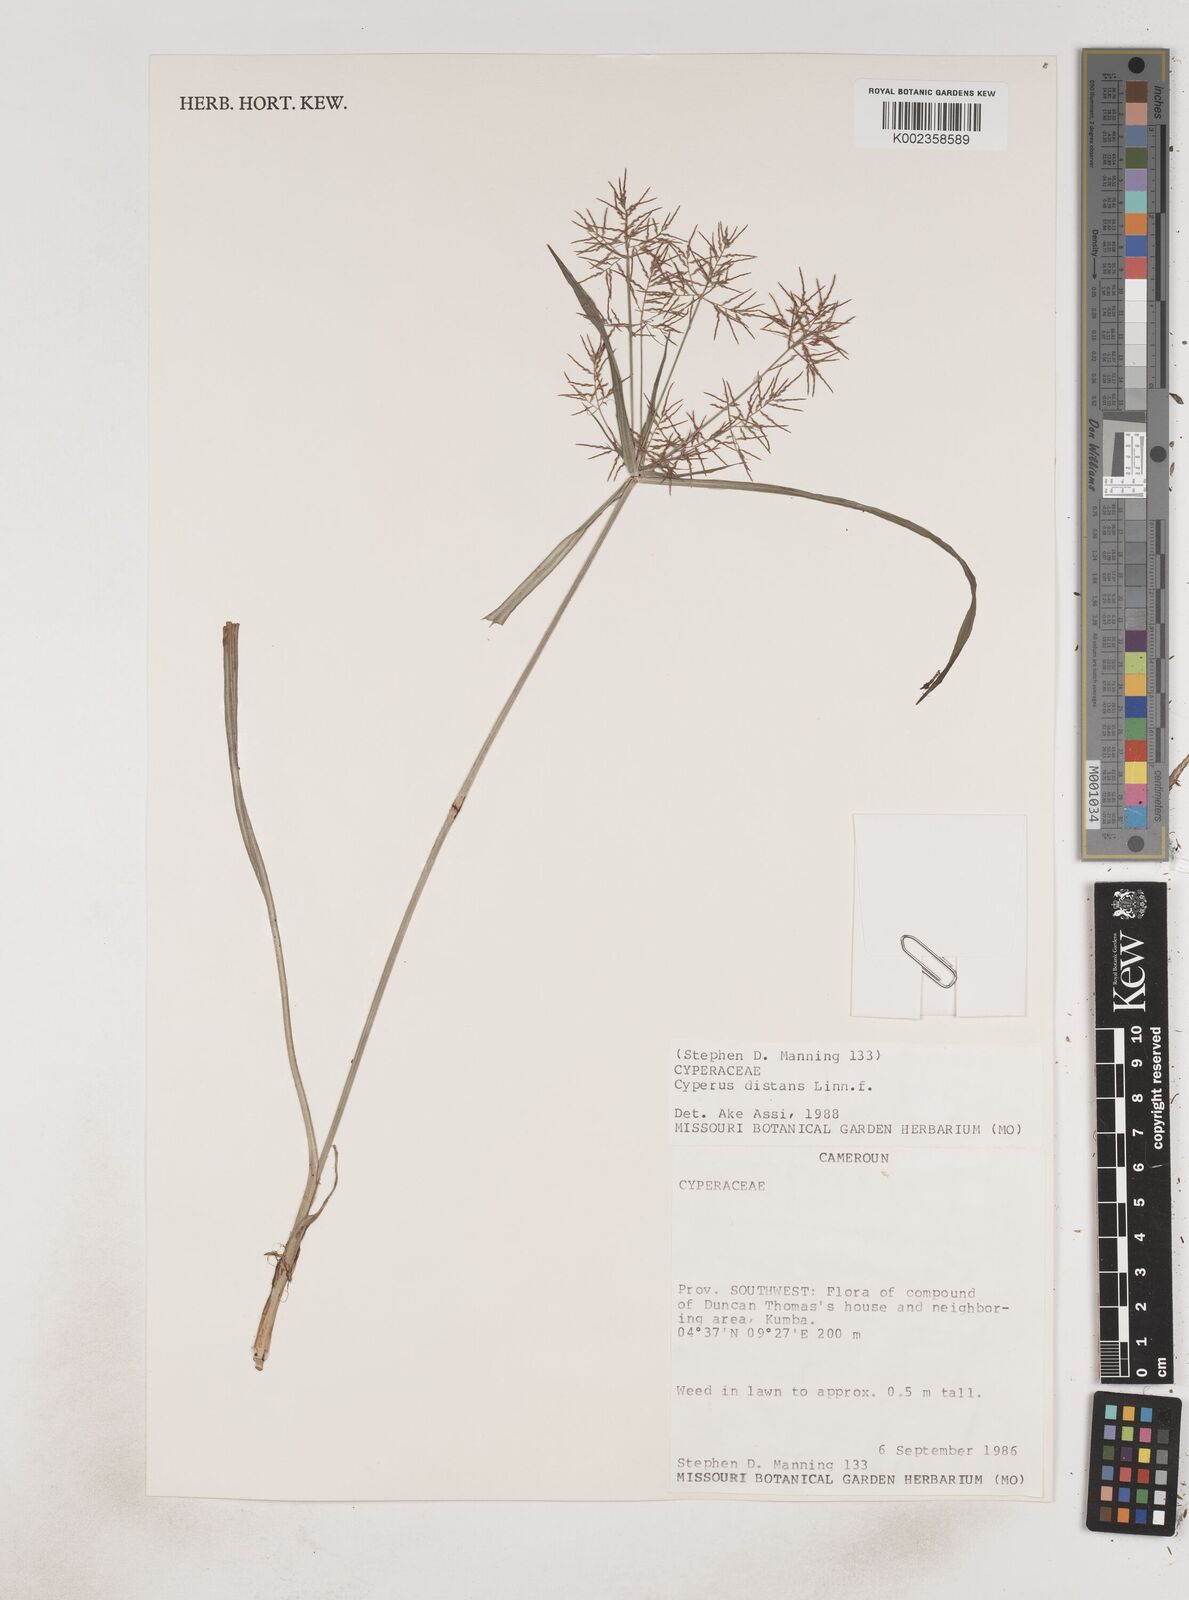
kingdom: Plantae
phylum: Tracheophyta
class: Liliopsida
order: Poales
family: Cyperaceae
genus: Cyperus
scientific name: Cyperus distans
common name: Slender cyperus
